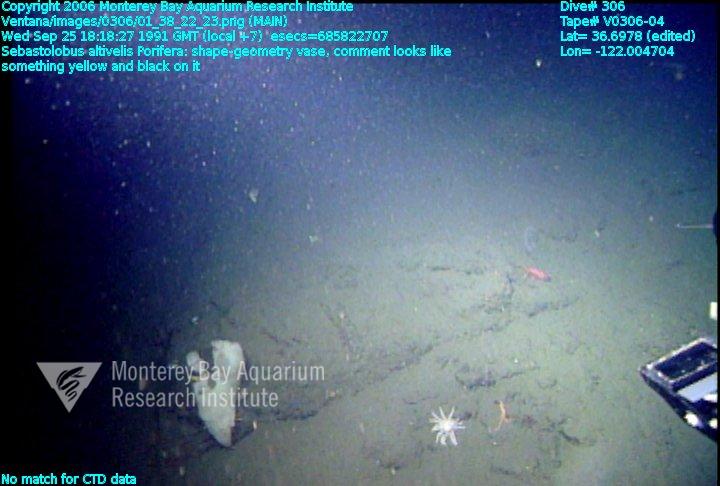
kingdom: Animalia
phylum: Porifera
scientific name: Porifera
